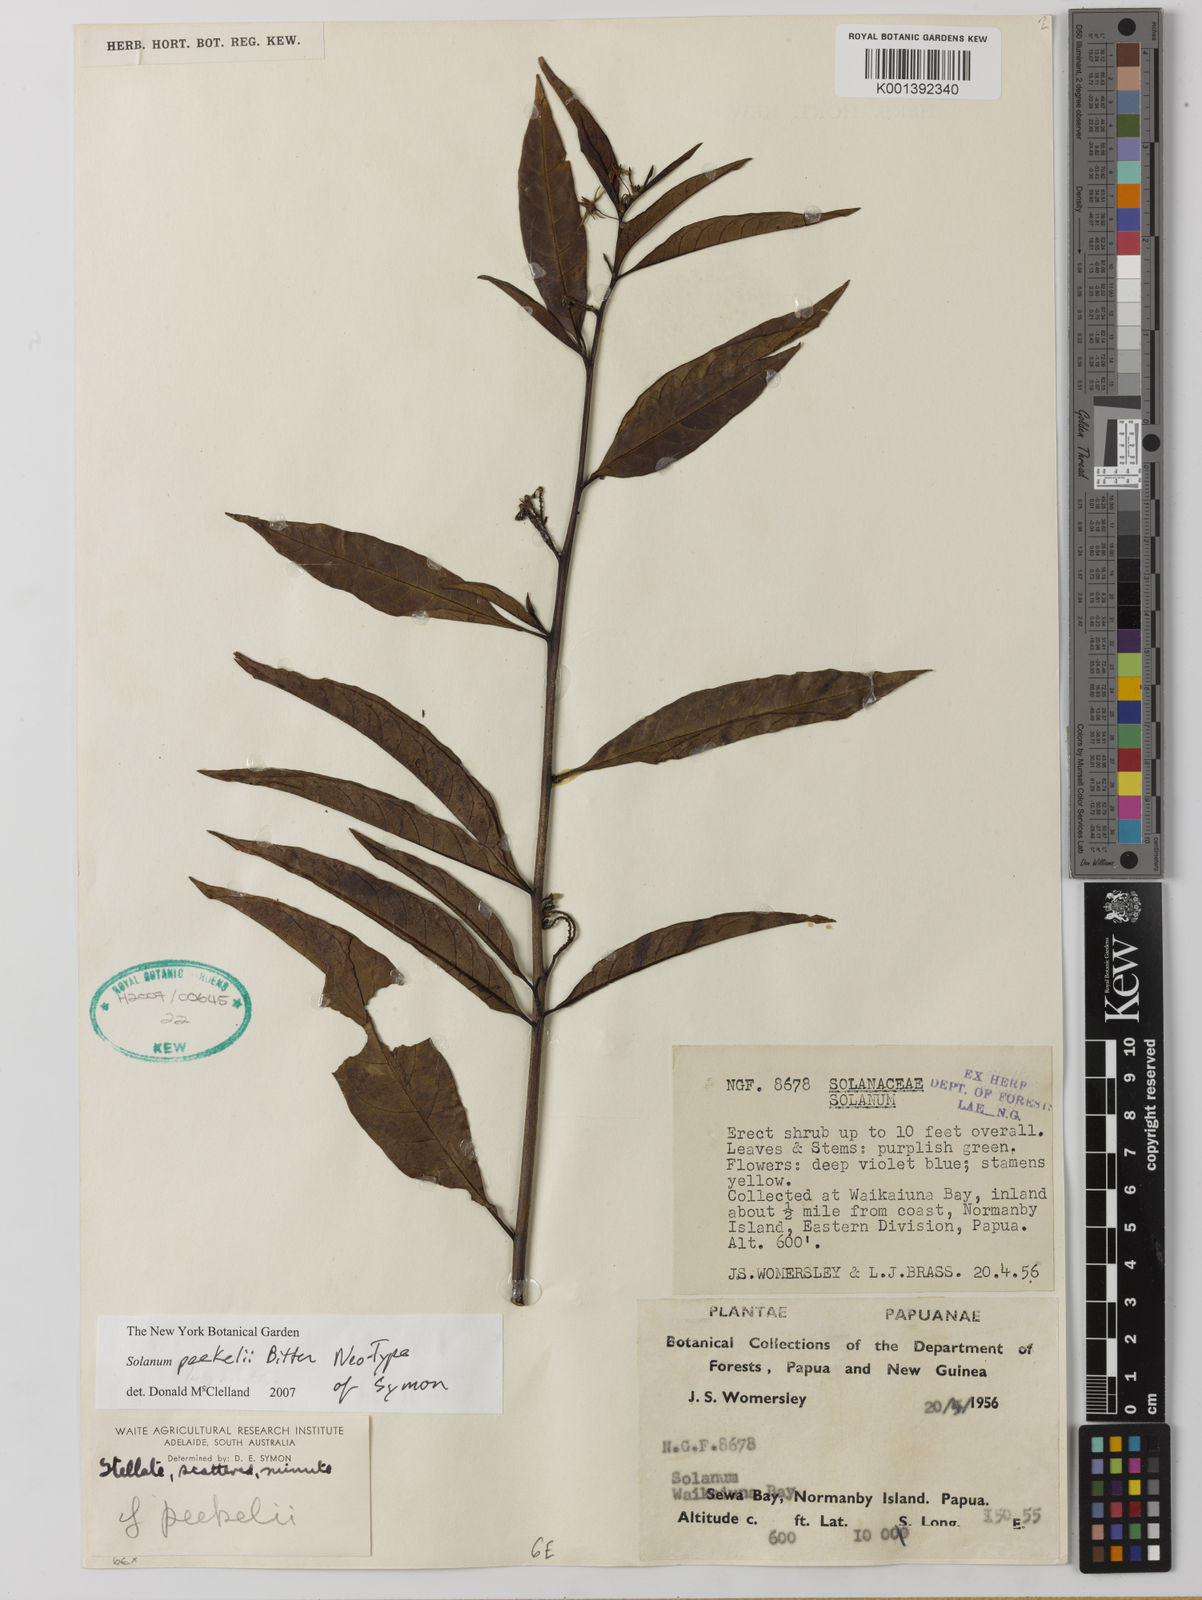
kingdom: Plantae
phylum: Tracheophyta
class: Magnoliopsida
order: Solanales
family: Solanaceae
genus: Solanum
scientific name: Solanum peekelii
